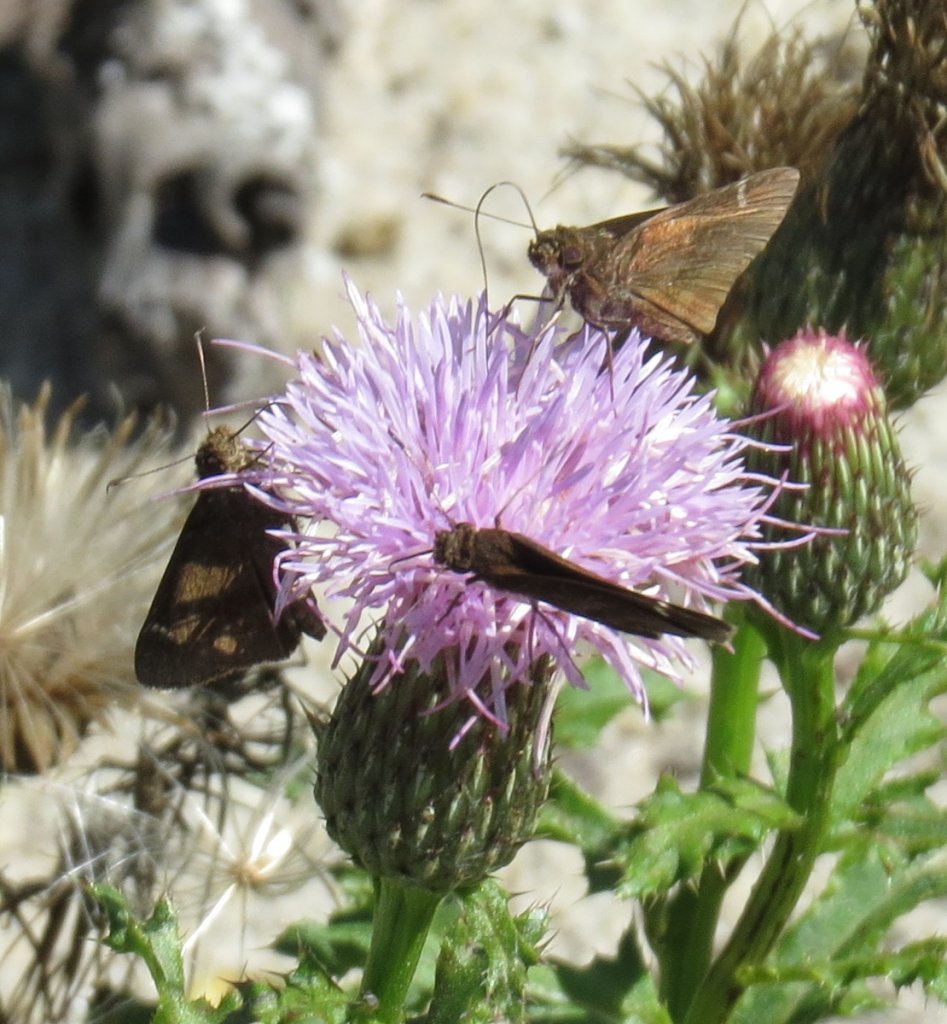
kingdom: Animalia
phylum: Arthropoda
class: Insecta
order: Lepidoptera
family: Hesperiidae
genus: Lerema
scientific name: Lerema accius
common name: Clouded Skipper
